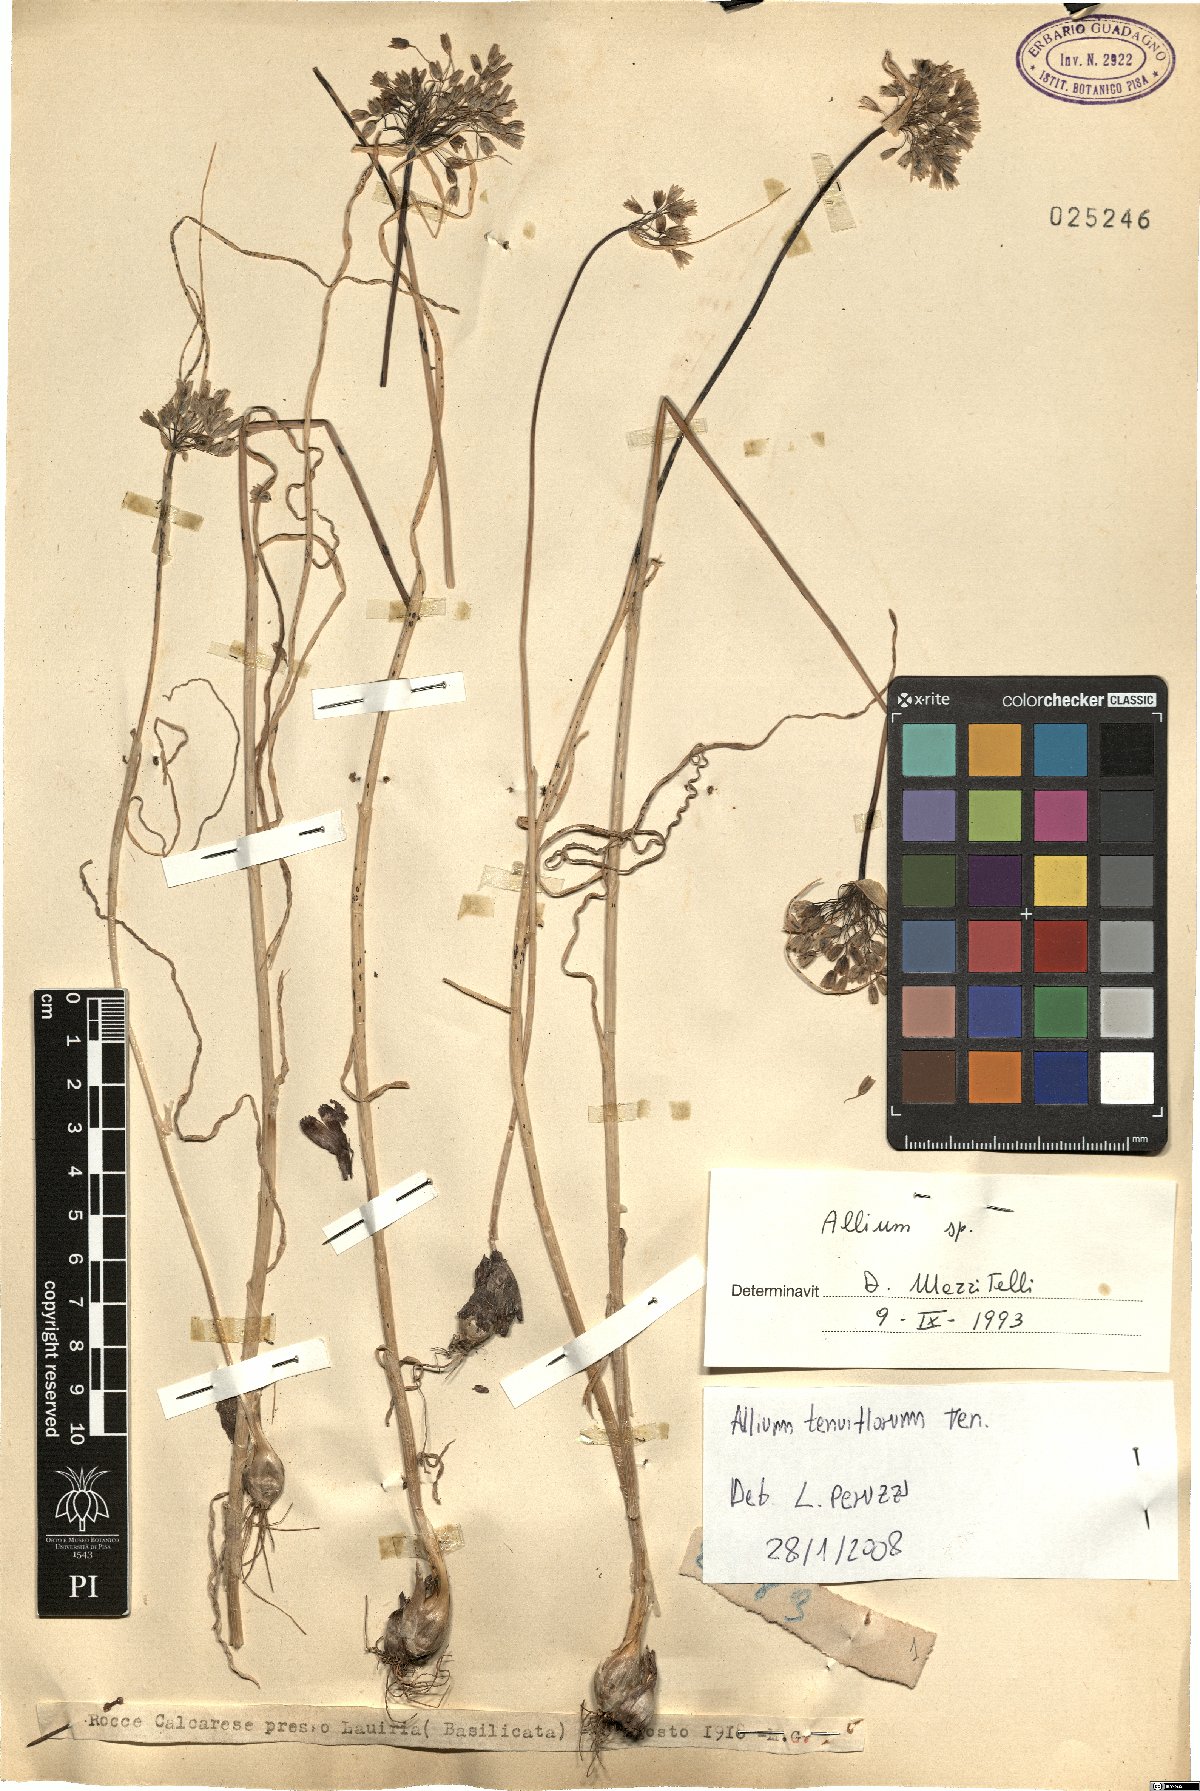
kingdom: Plantae
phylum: Tracheophyta
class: Liliopsida
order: Asparagales
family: Amaryllidaceae
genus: Allium
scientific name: Allium tenuiflorum
